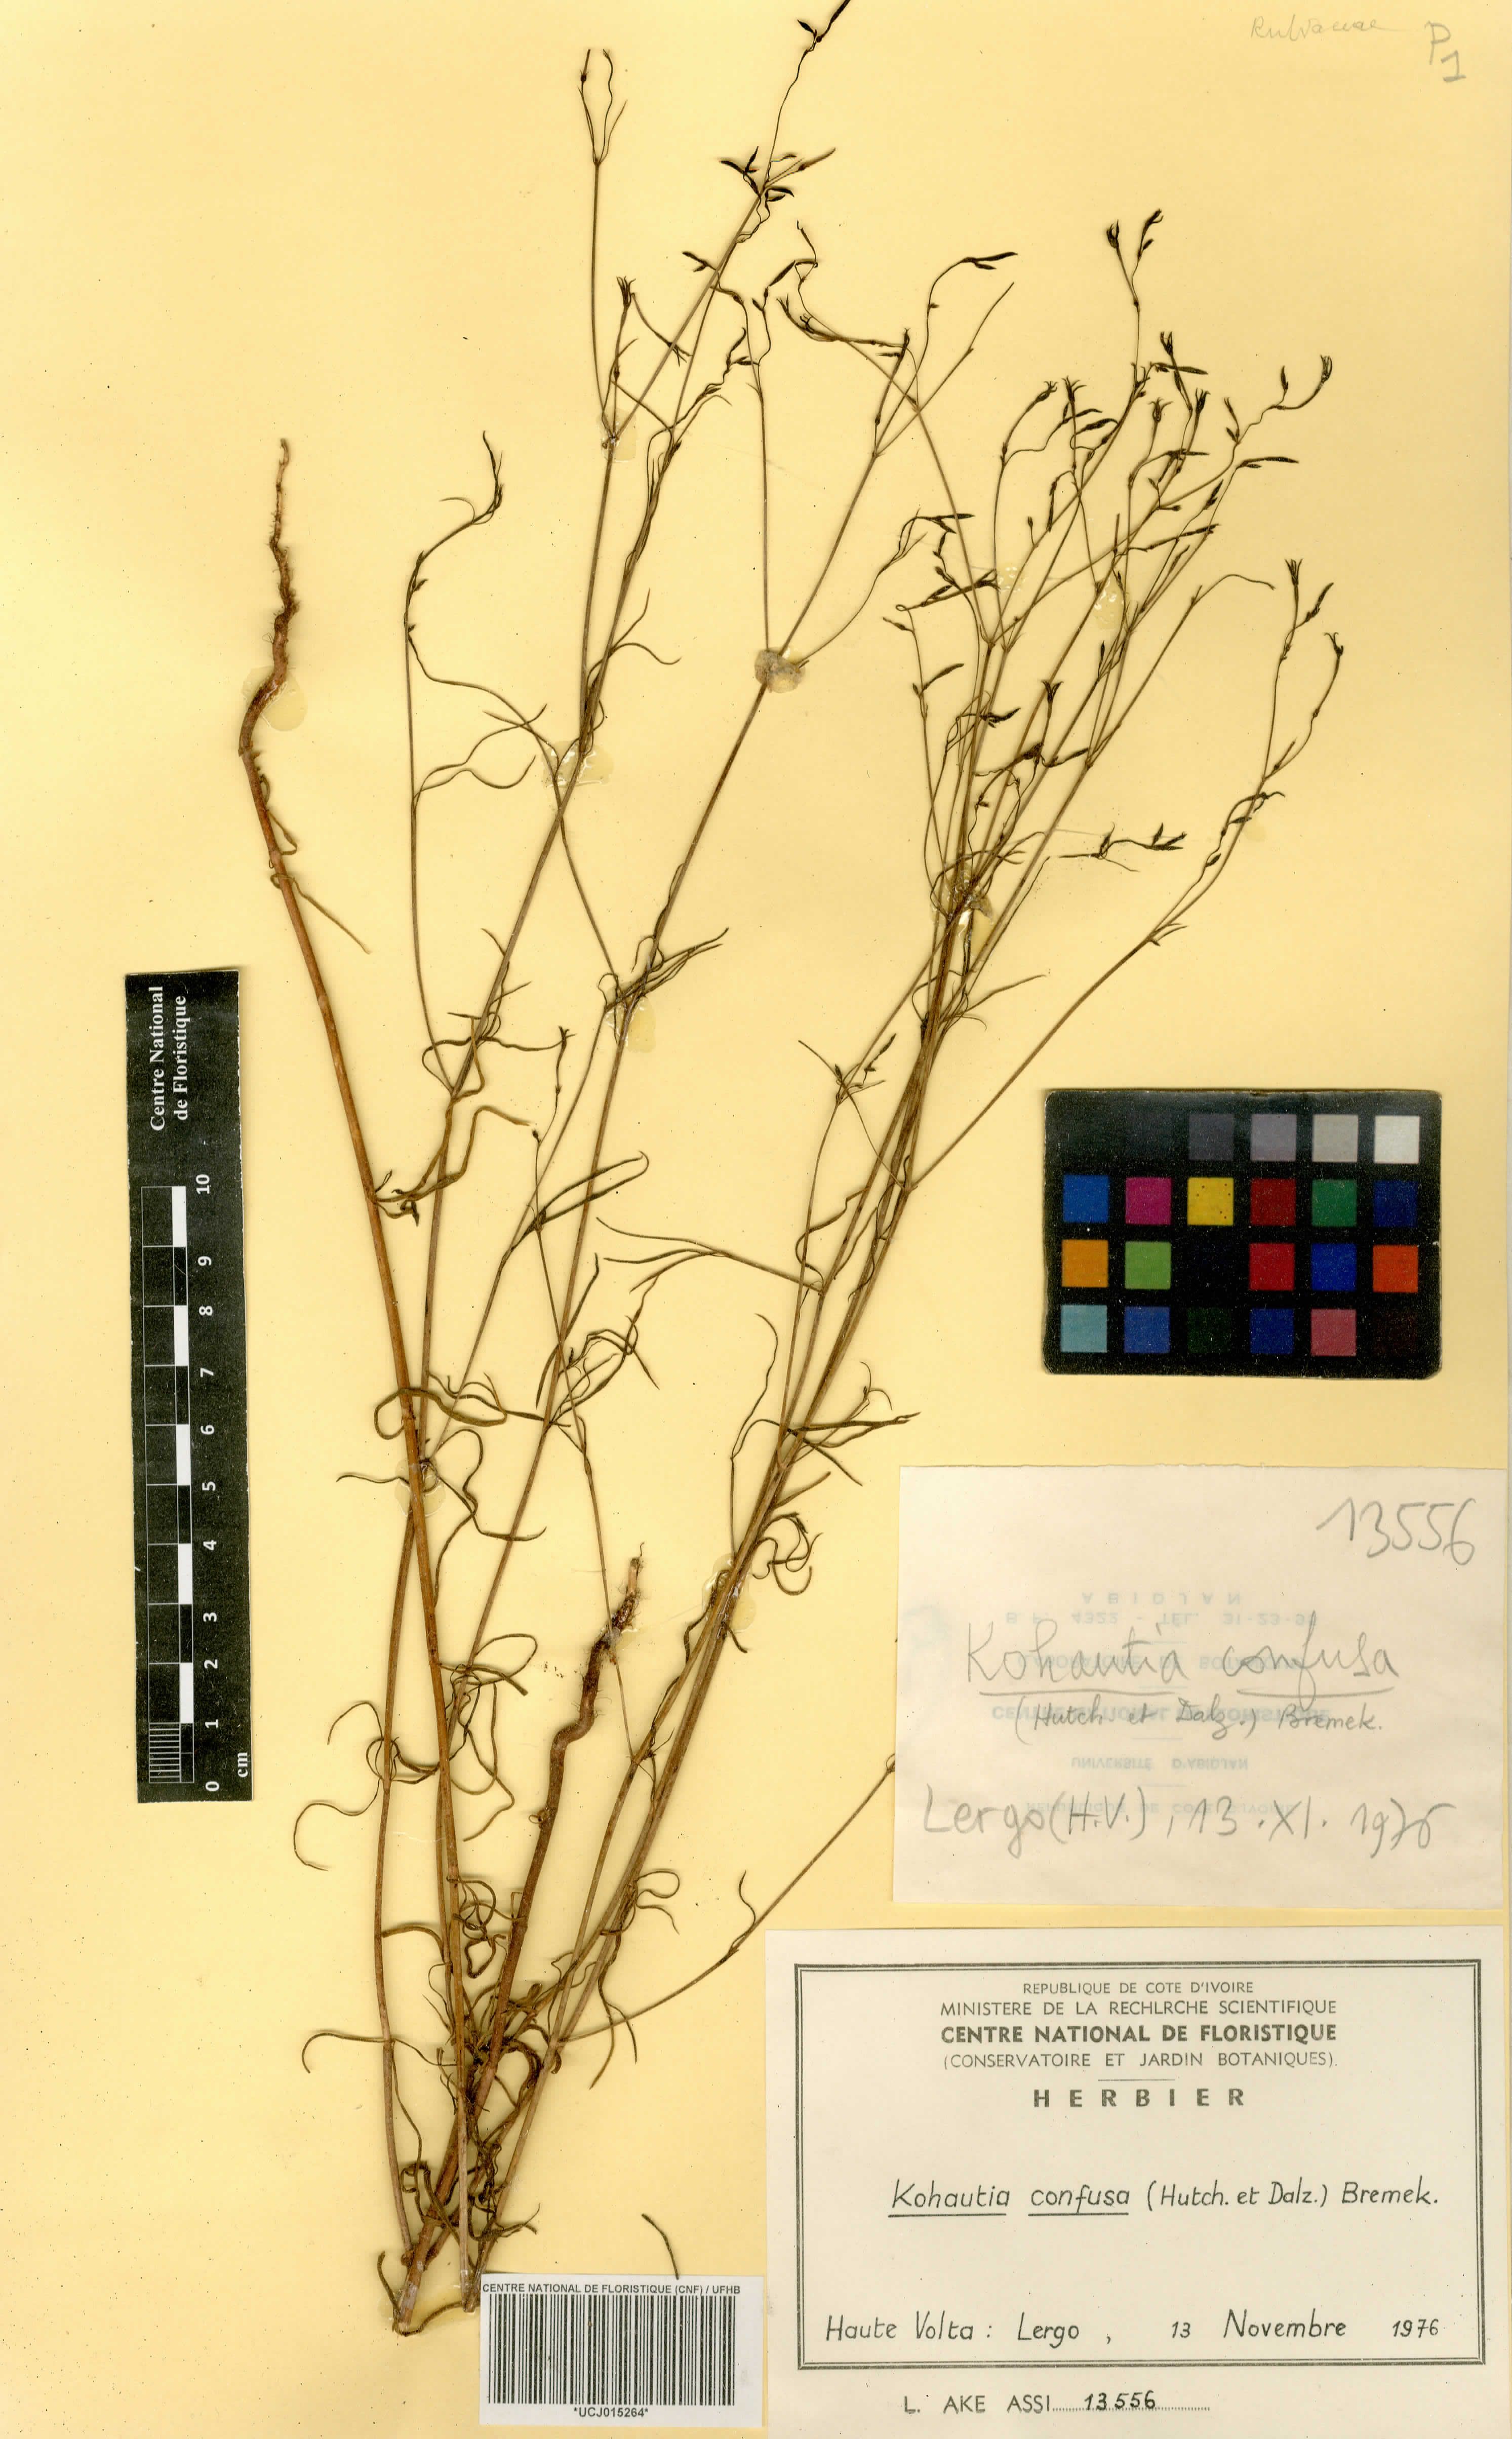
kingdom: Plantae
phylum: Tracheophyta
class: Magnoliopsida
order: Gentianales
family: Rubiaceae
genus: Kohautia
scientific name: Kohautia confusa
